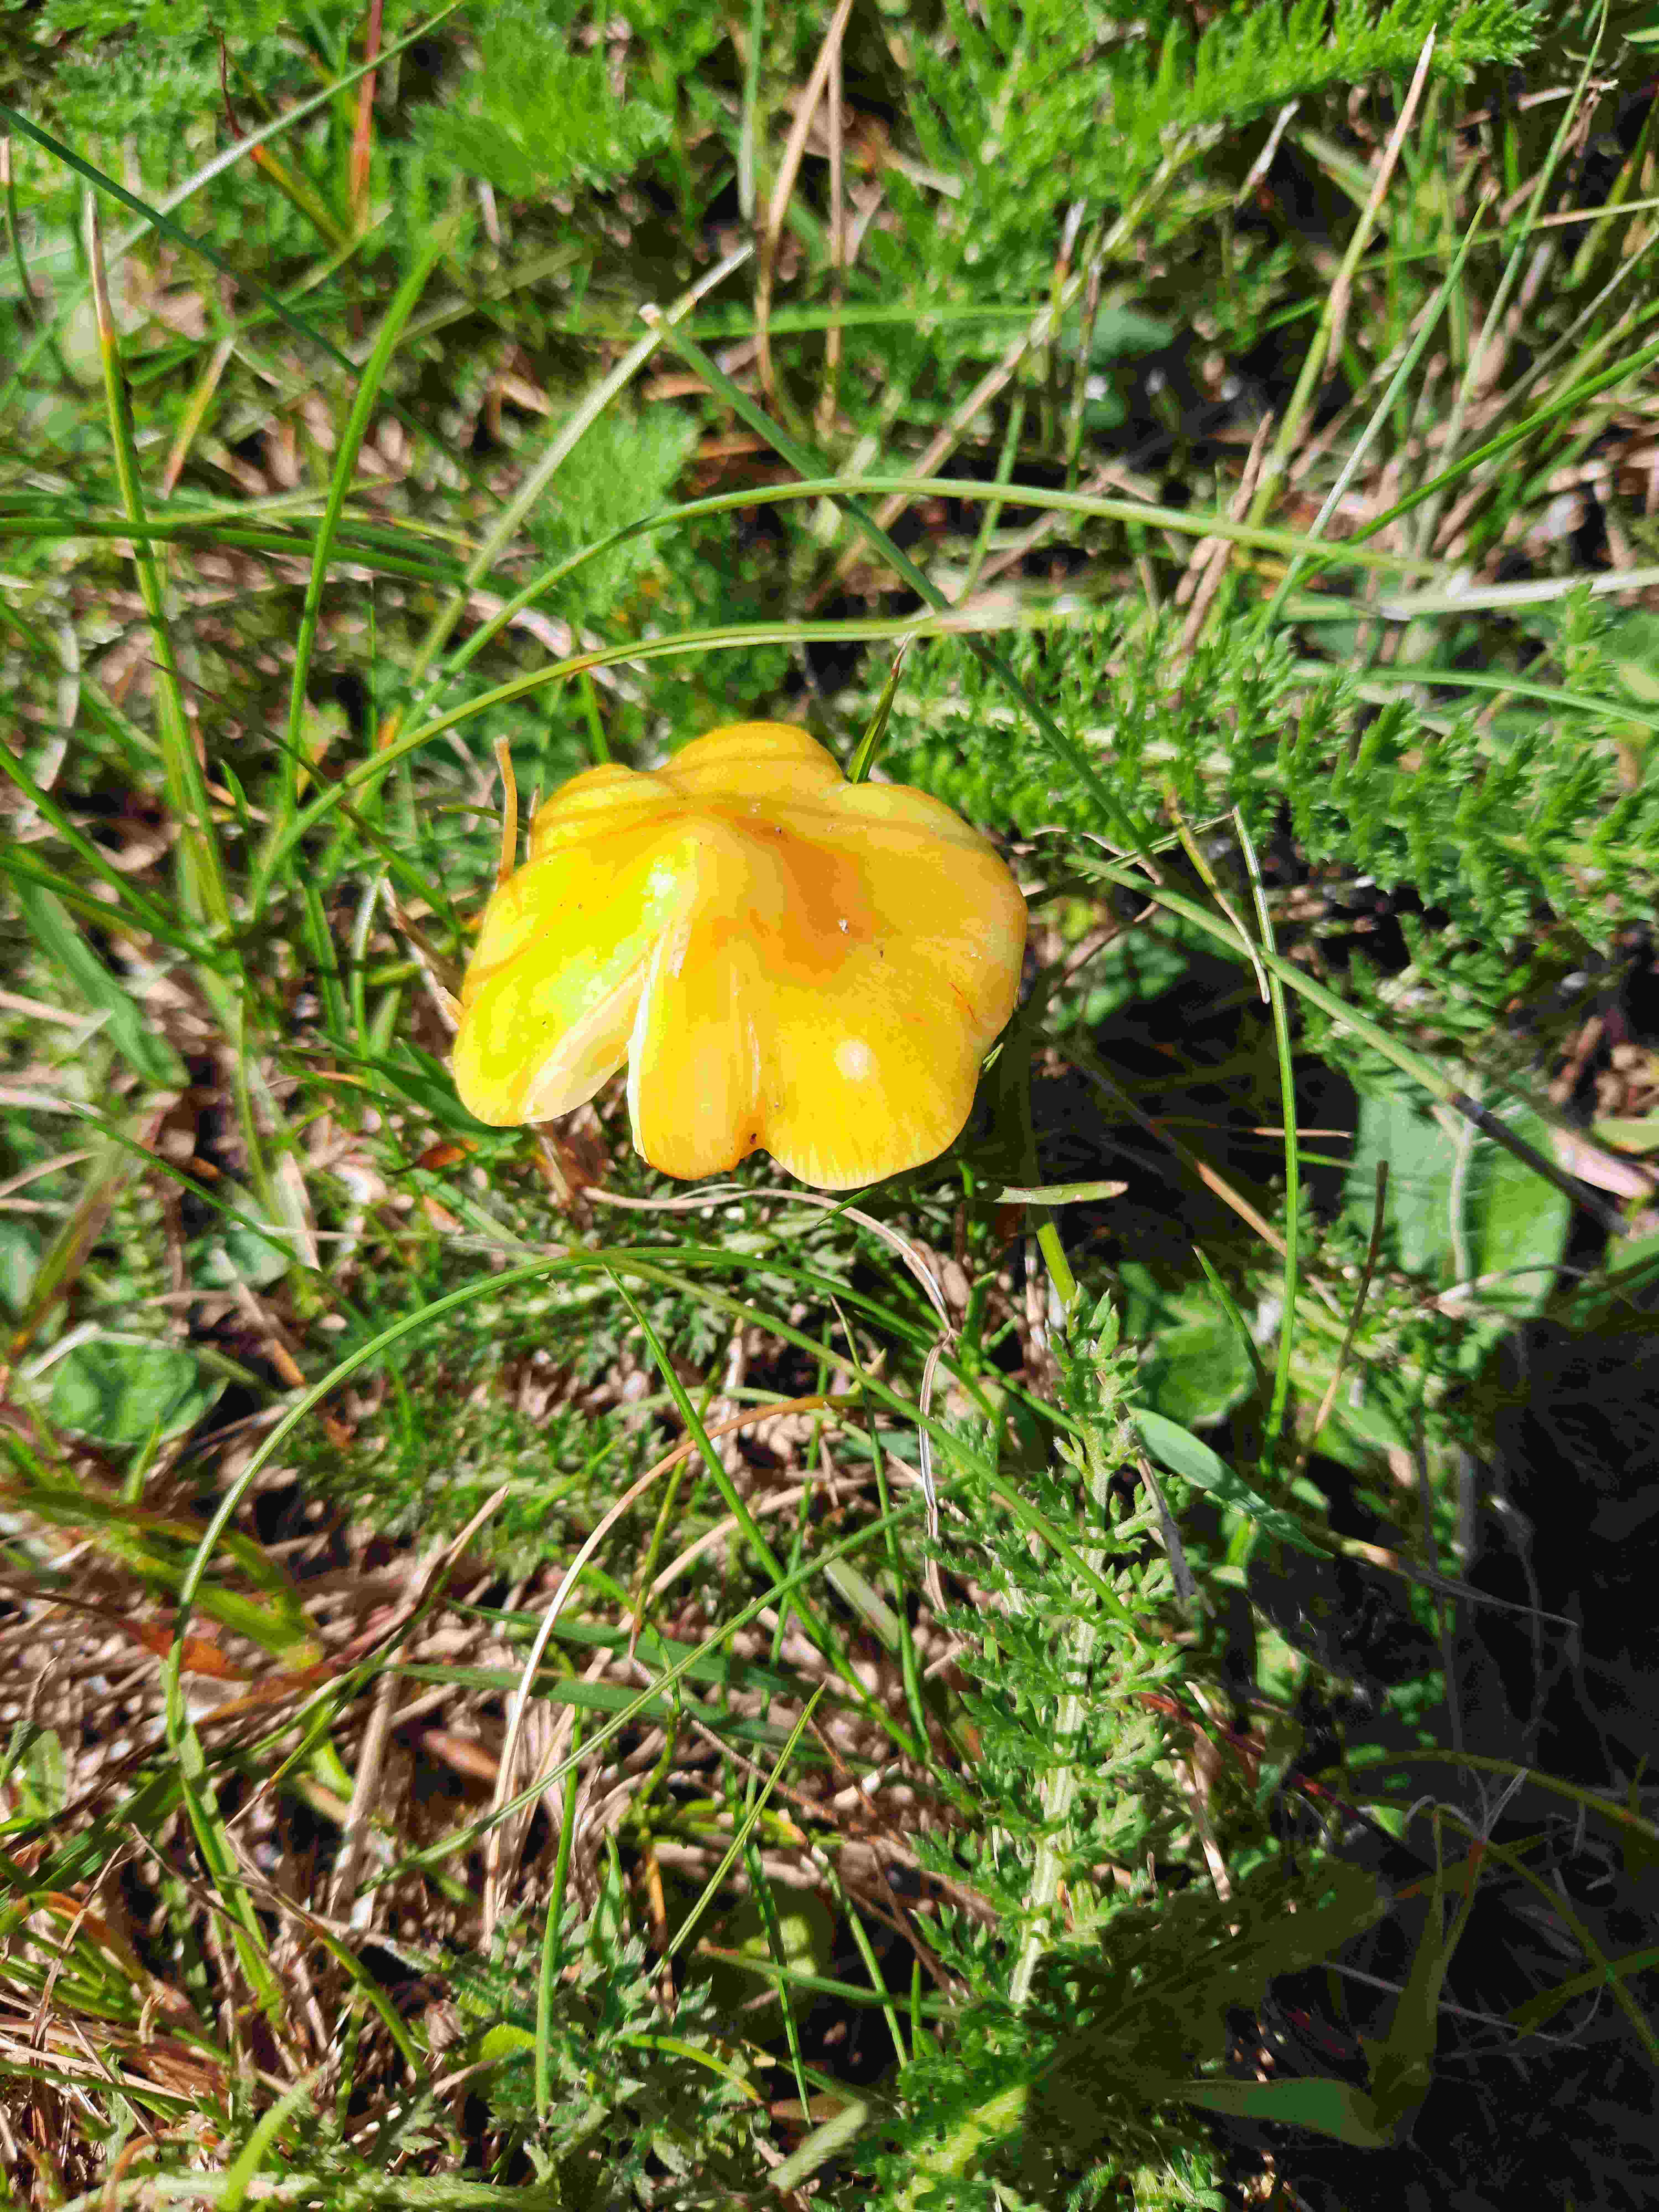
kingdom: Fungi
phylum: Basidiomycota
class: Agaricomycetes
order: Agaricales
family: Hygrophoraceae
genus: Hygrocybe
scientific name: Hygrocybe conica
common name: kegle-vokshat
